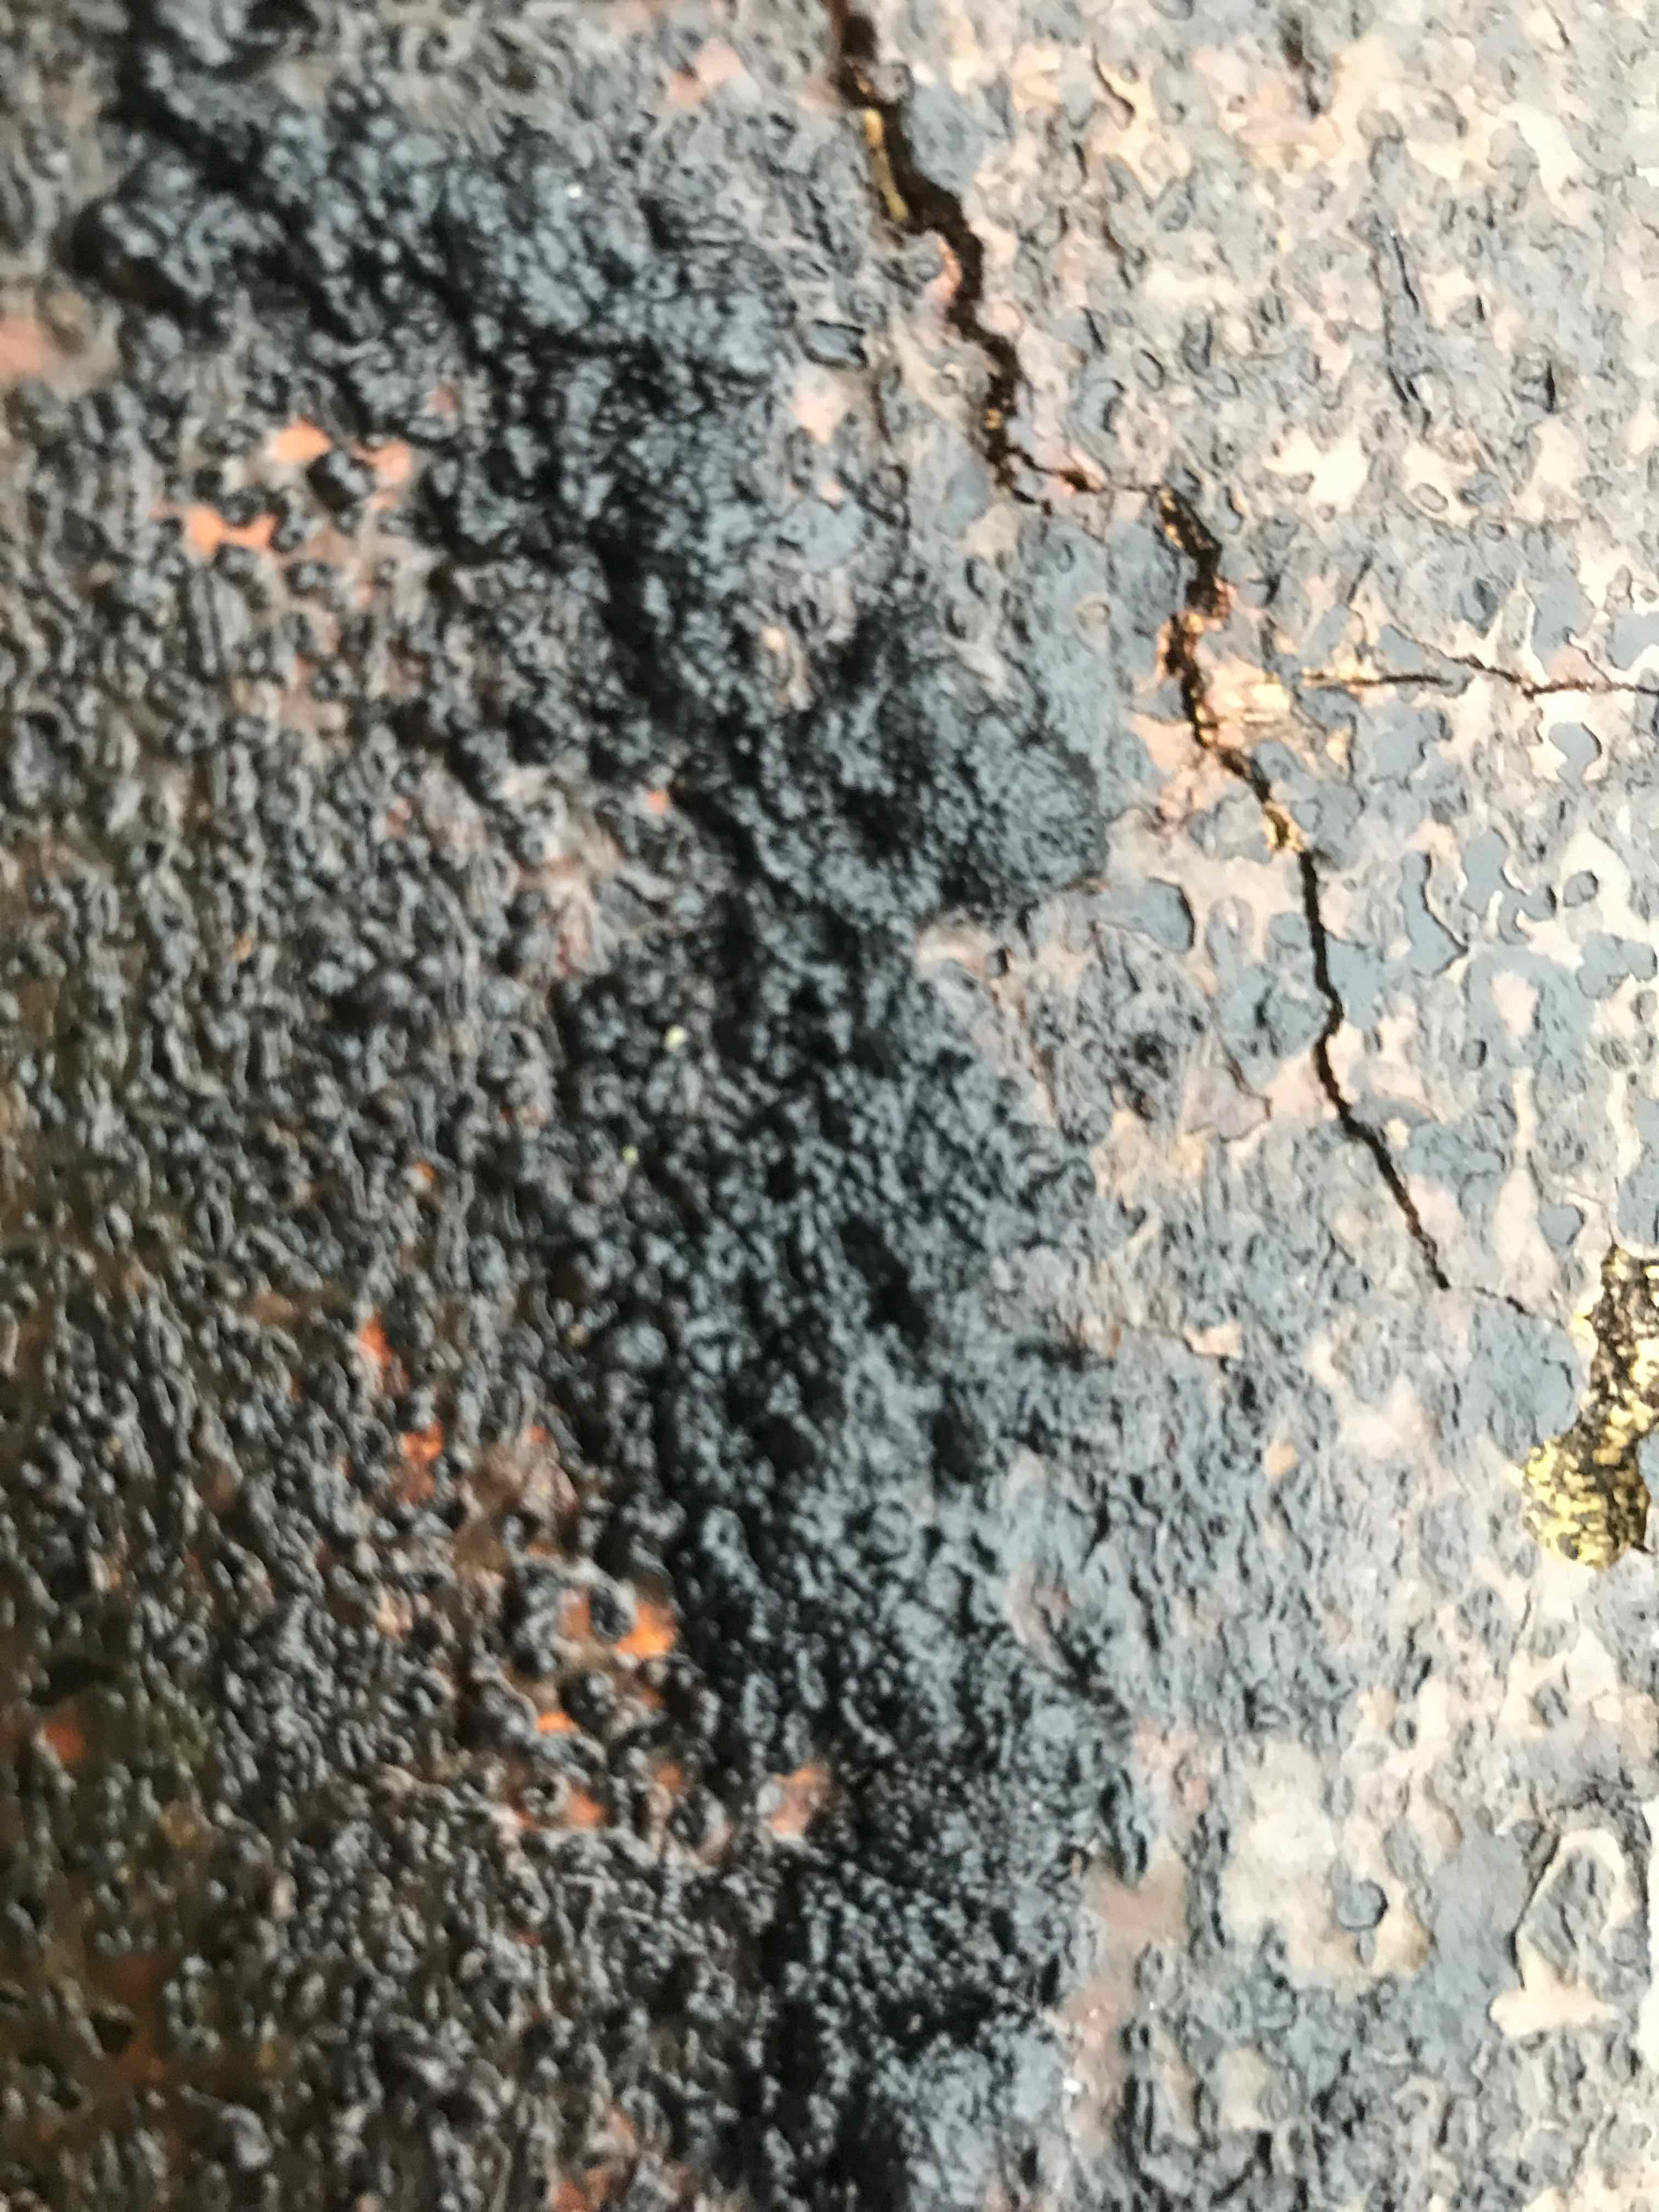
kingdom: Fungi
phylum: Ascomycota
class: Sordariomycetes
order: Xylariales
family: Hypoxylaceae
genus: Jackrogersella
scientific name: Jackrogersella cohaerens
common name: sammenflydende kulbær
